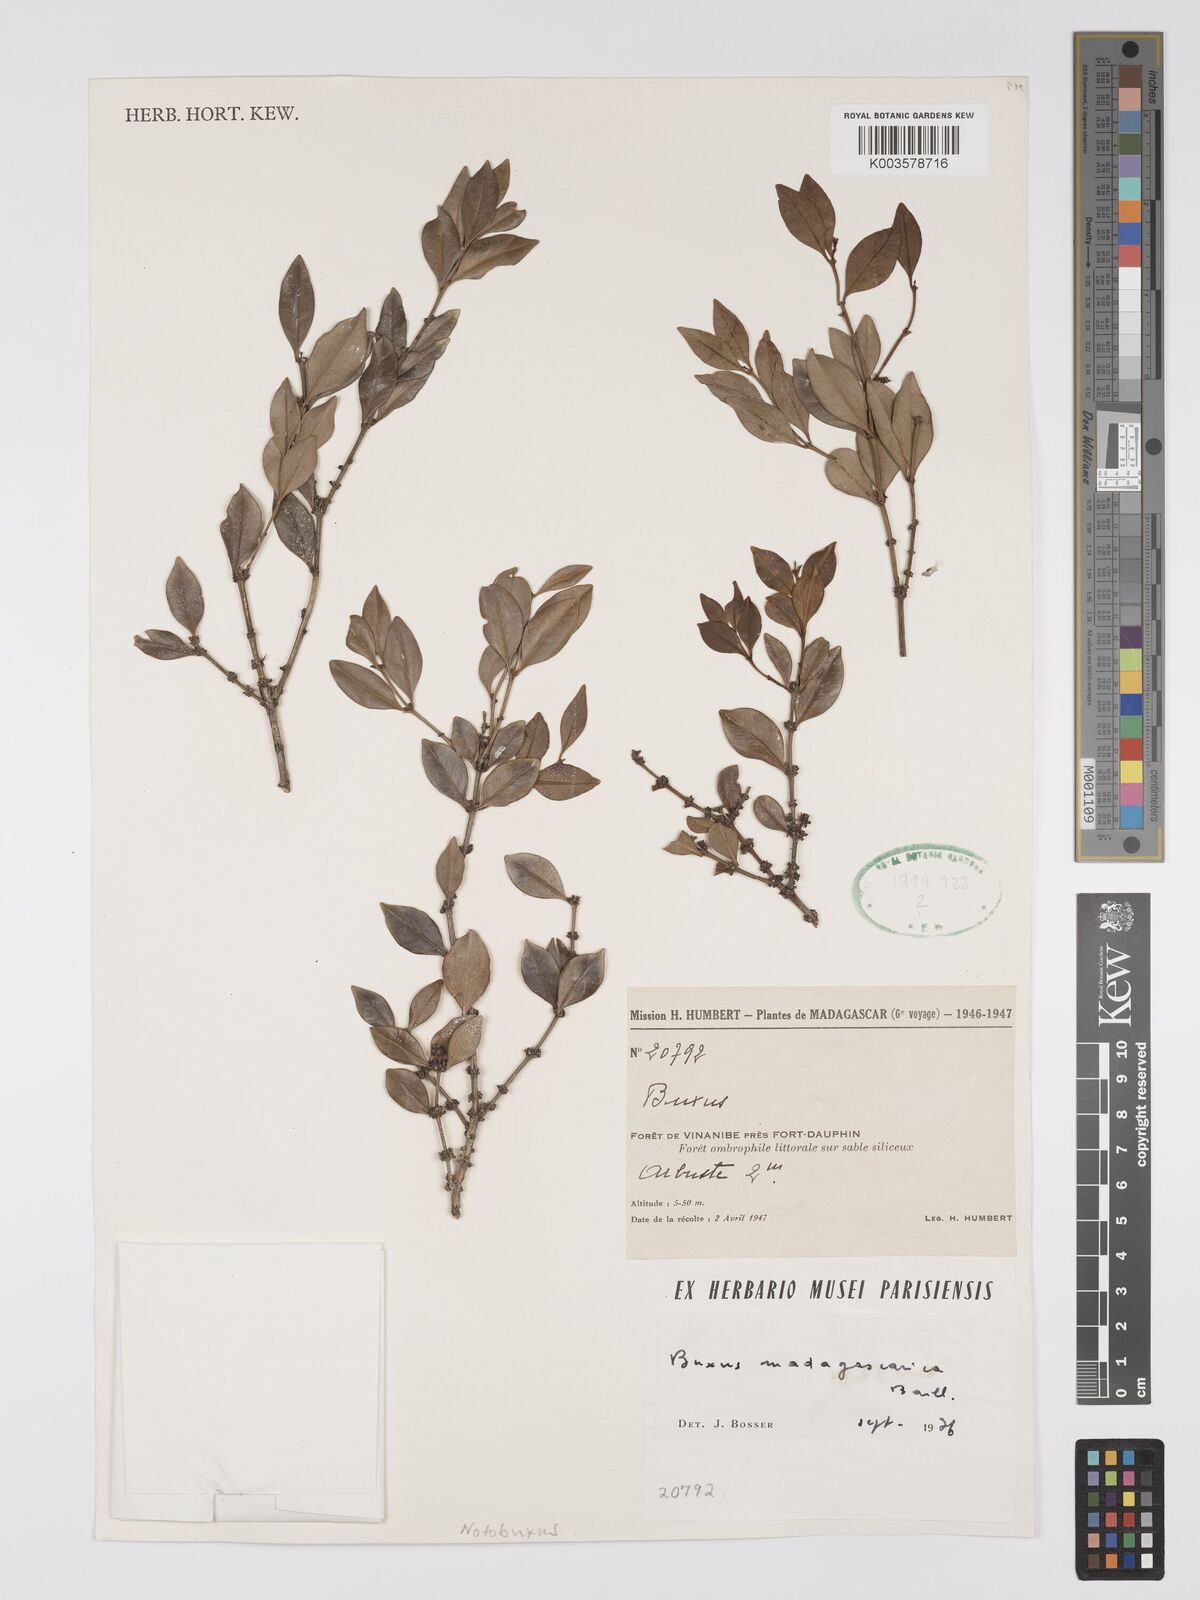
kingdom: Plantae
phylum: Tracheophyta
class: Magnoliopsida
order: Buxales
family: Buxaceae
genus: Buxus
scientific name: Buxus madagascarica
